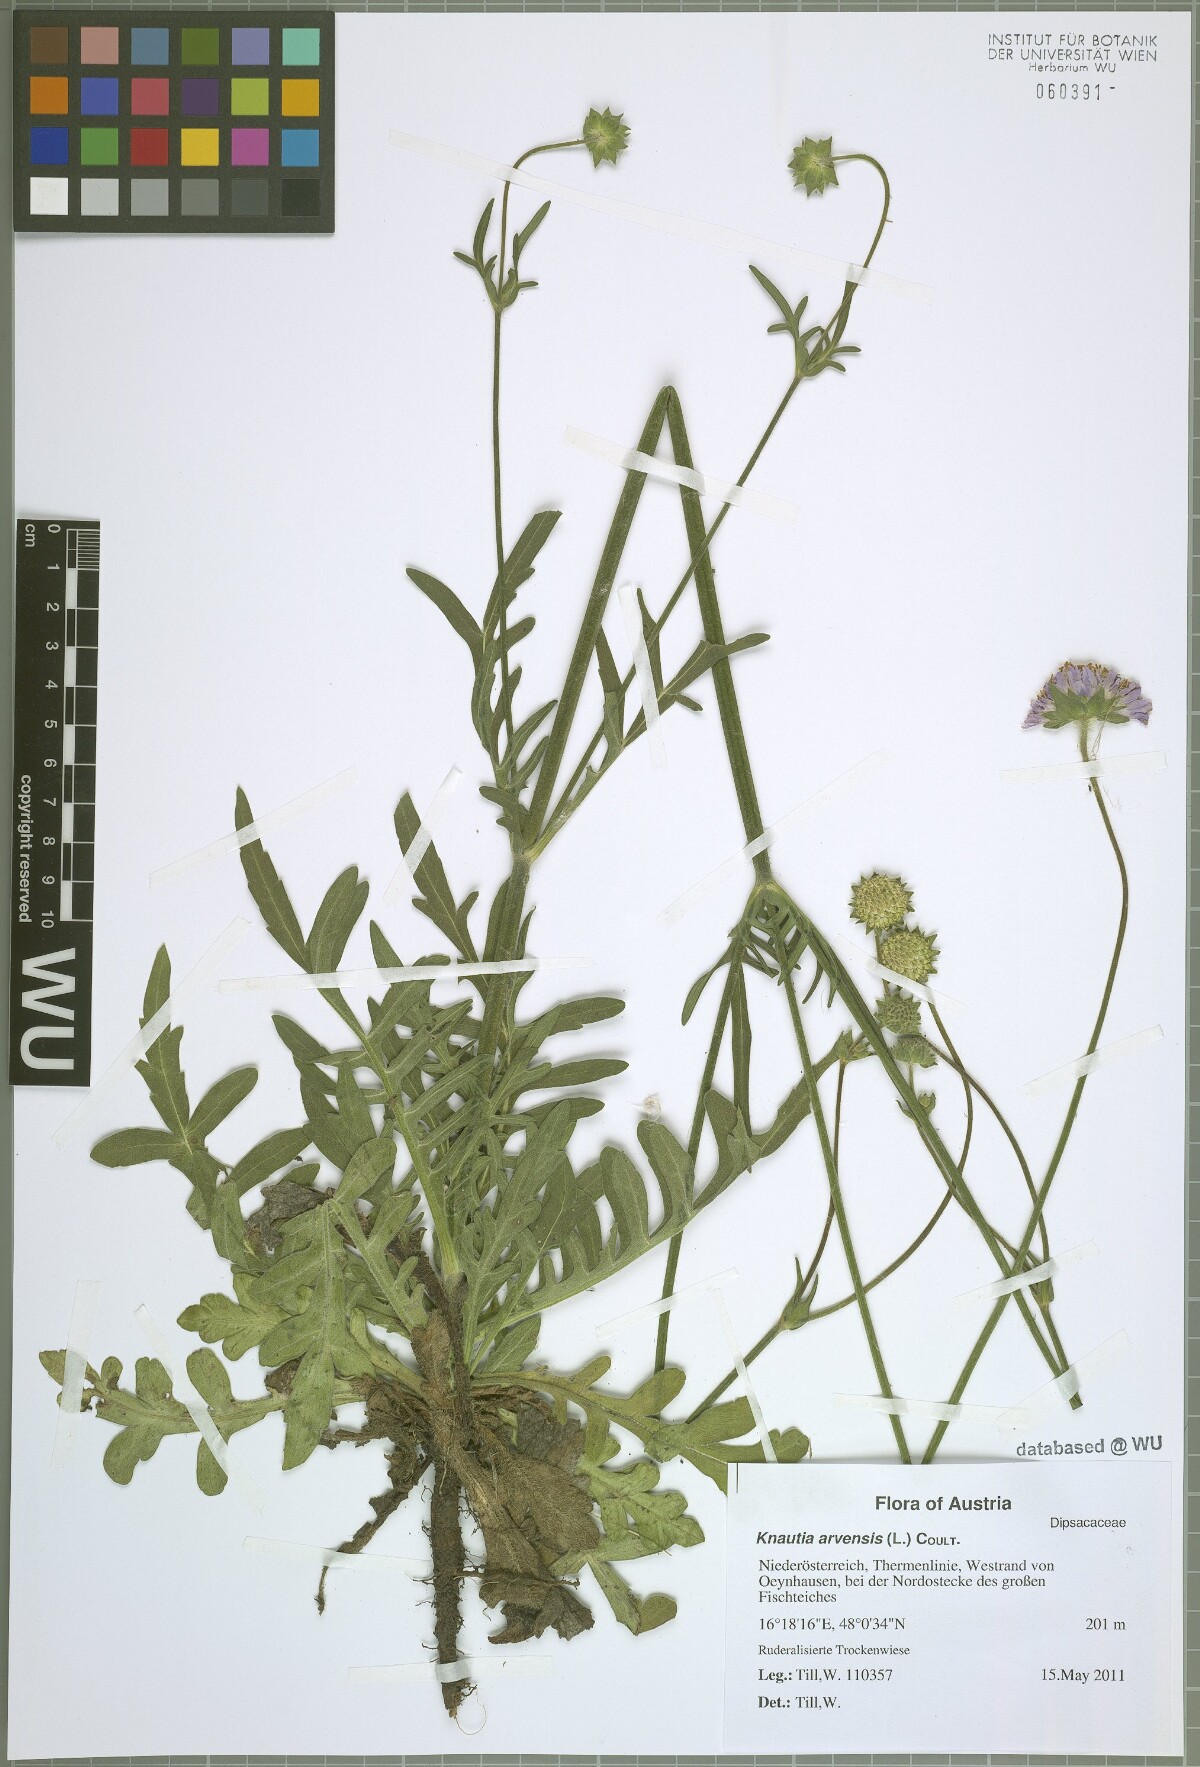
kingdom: Plantae
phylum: Tracheophyta
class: Magnoliopsida
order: Dipsacales
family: Caprifoliaceae
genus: Knautia
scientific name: Knautia arvensis
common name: Field scabiosa
